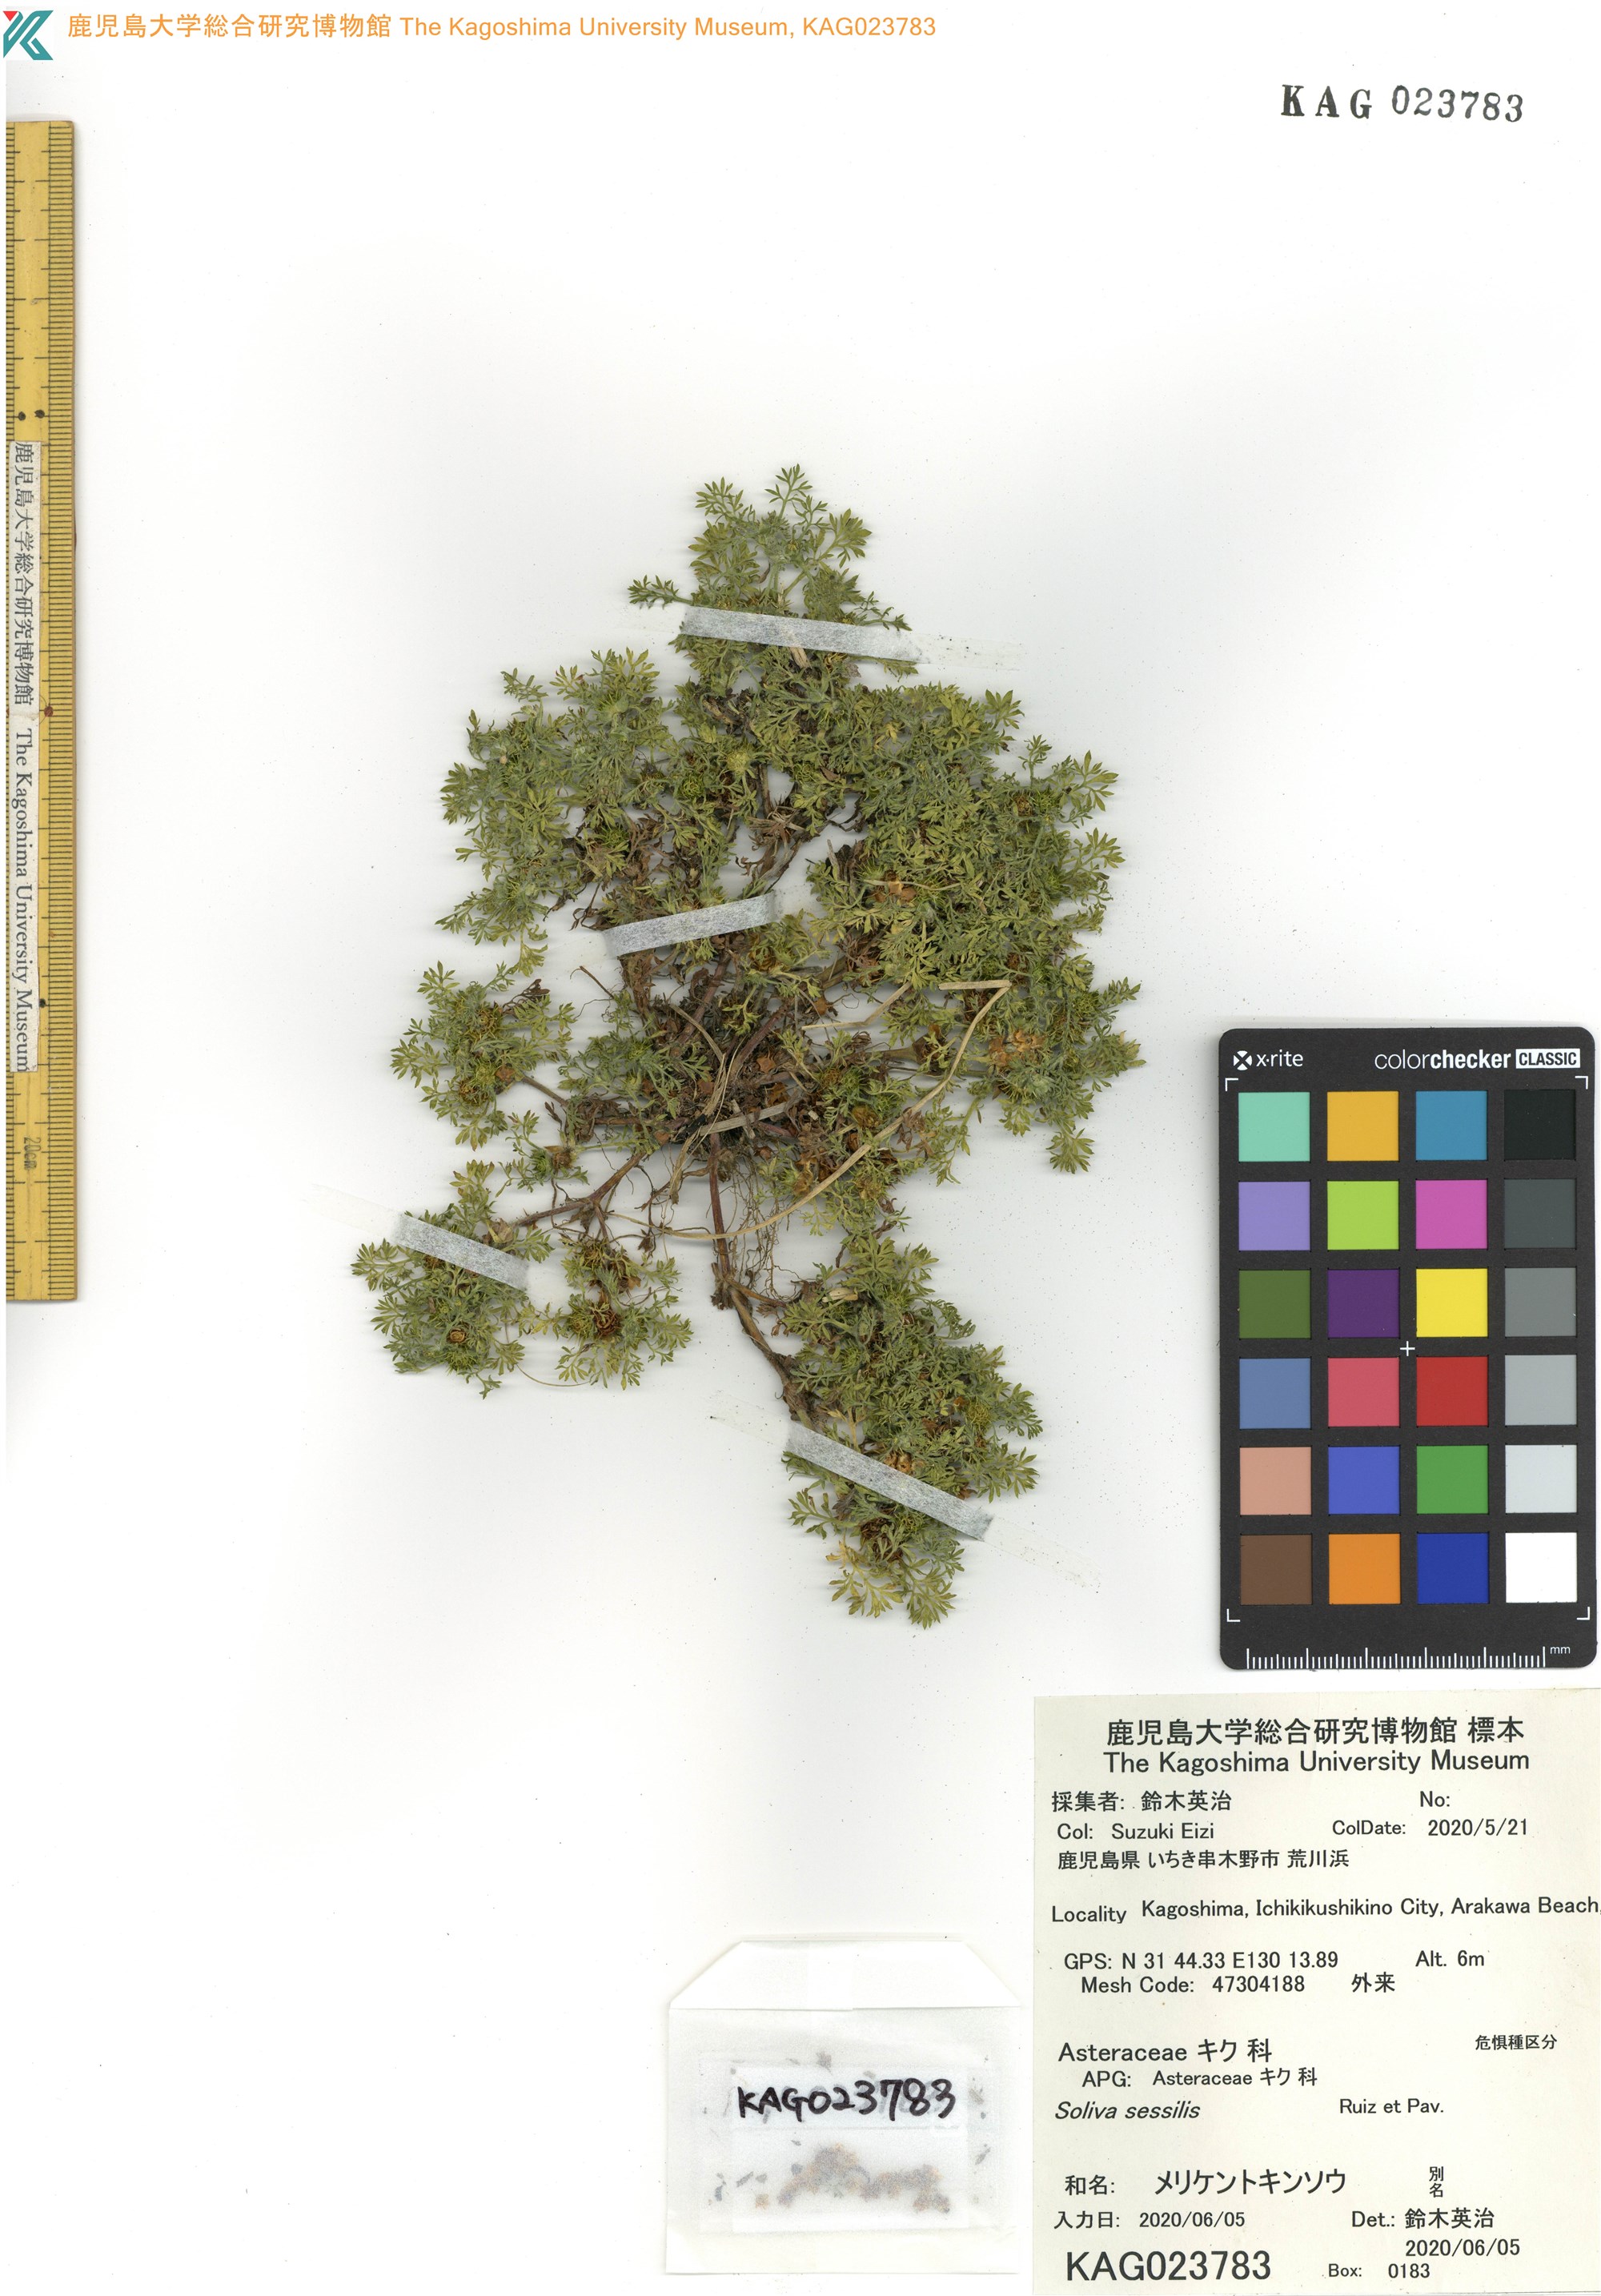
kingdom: Plantae
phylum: Tracheophyta
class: Magnoliopsida
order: Asterales
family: Asteraceae
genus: Soliva
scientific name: Soliva sessilis
